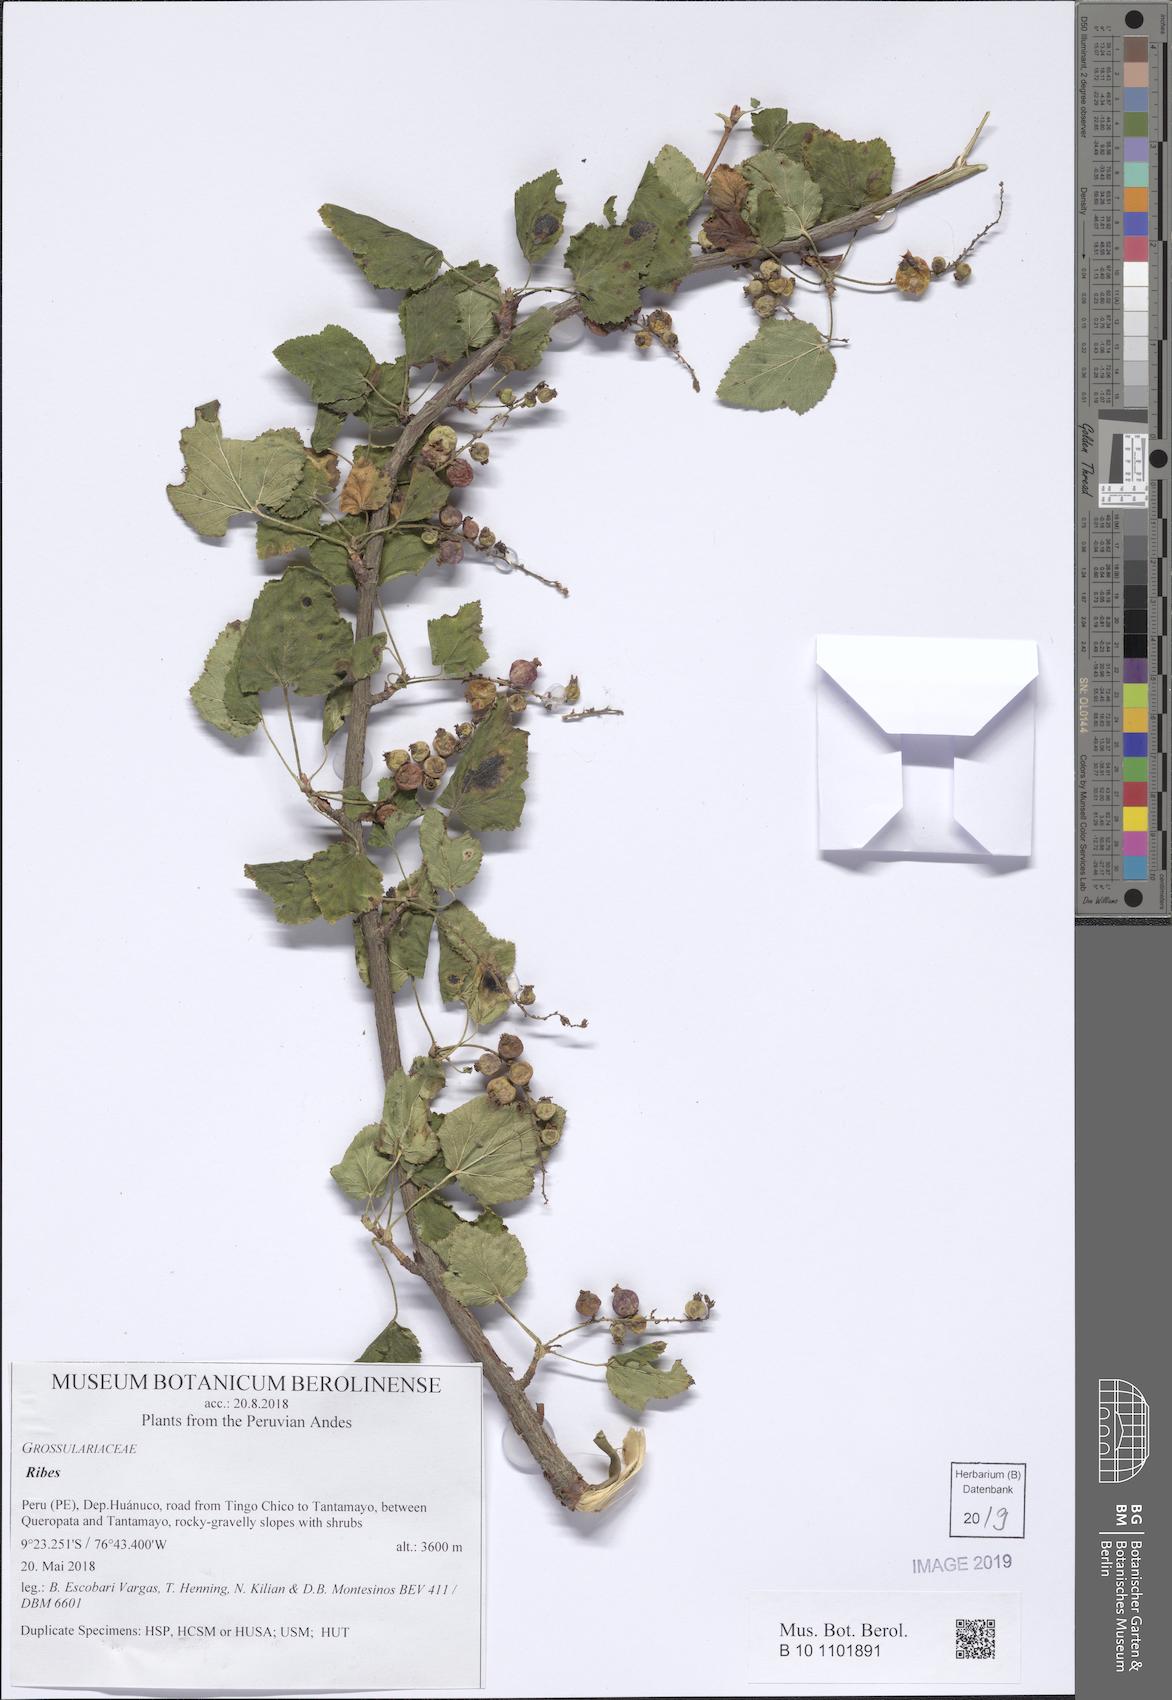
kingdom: Plantae
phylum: Tracheophyta
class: Magnoliopsida
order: Saxifragales
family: Grossulariaceae
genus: Ribes
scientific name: Ribes
